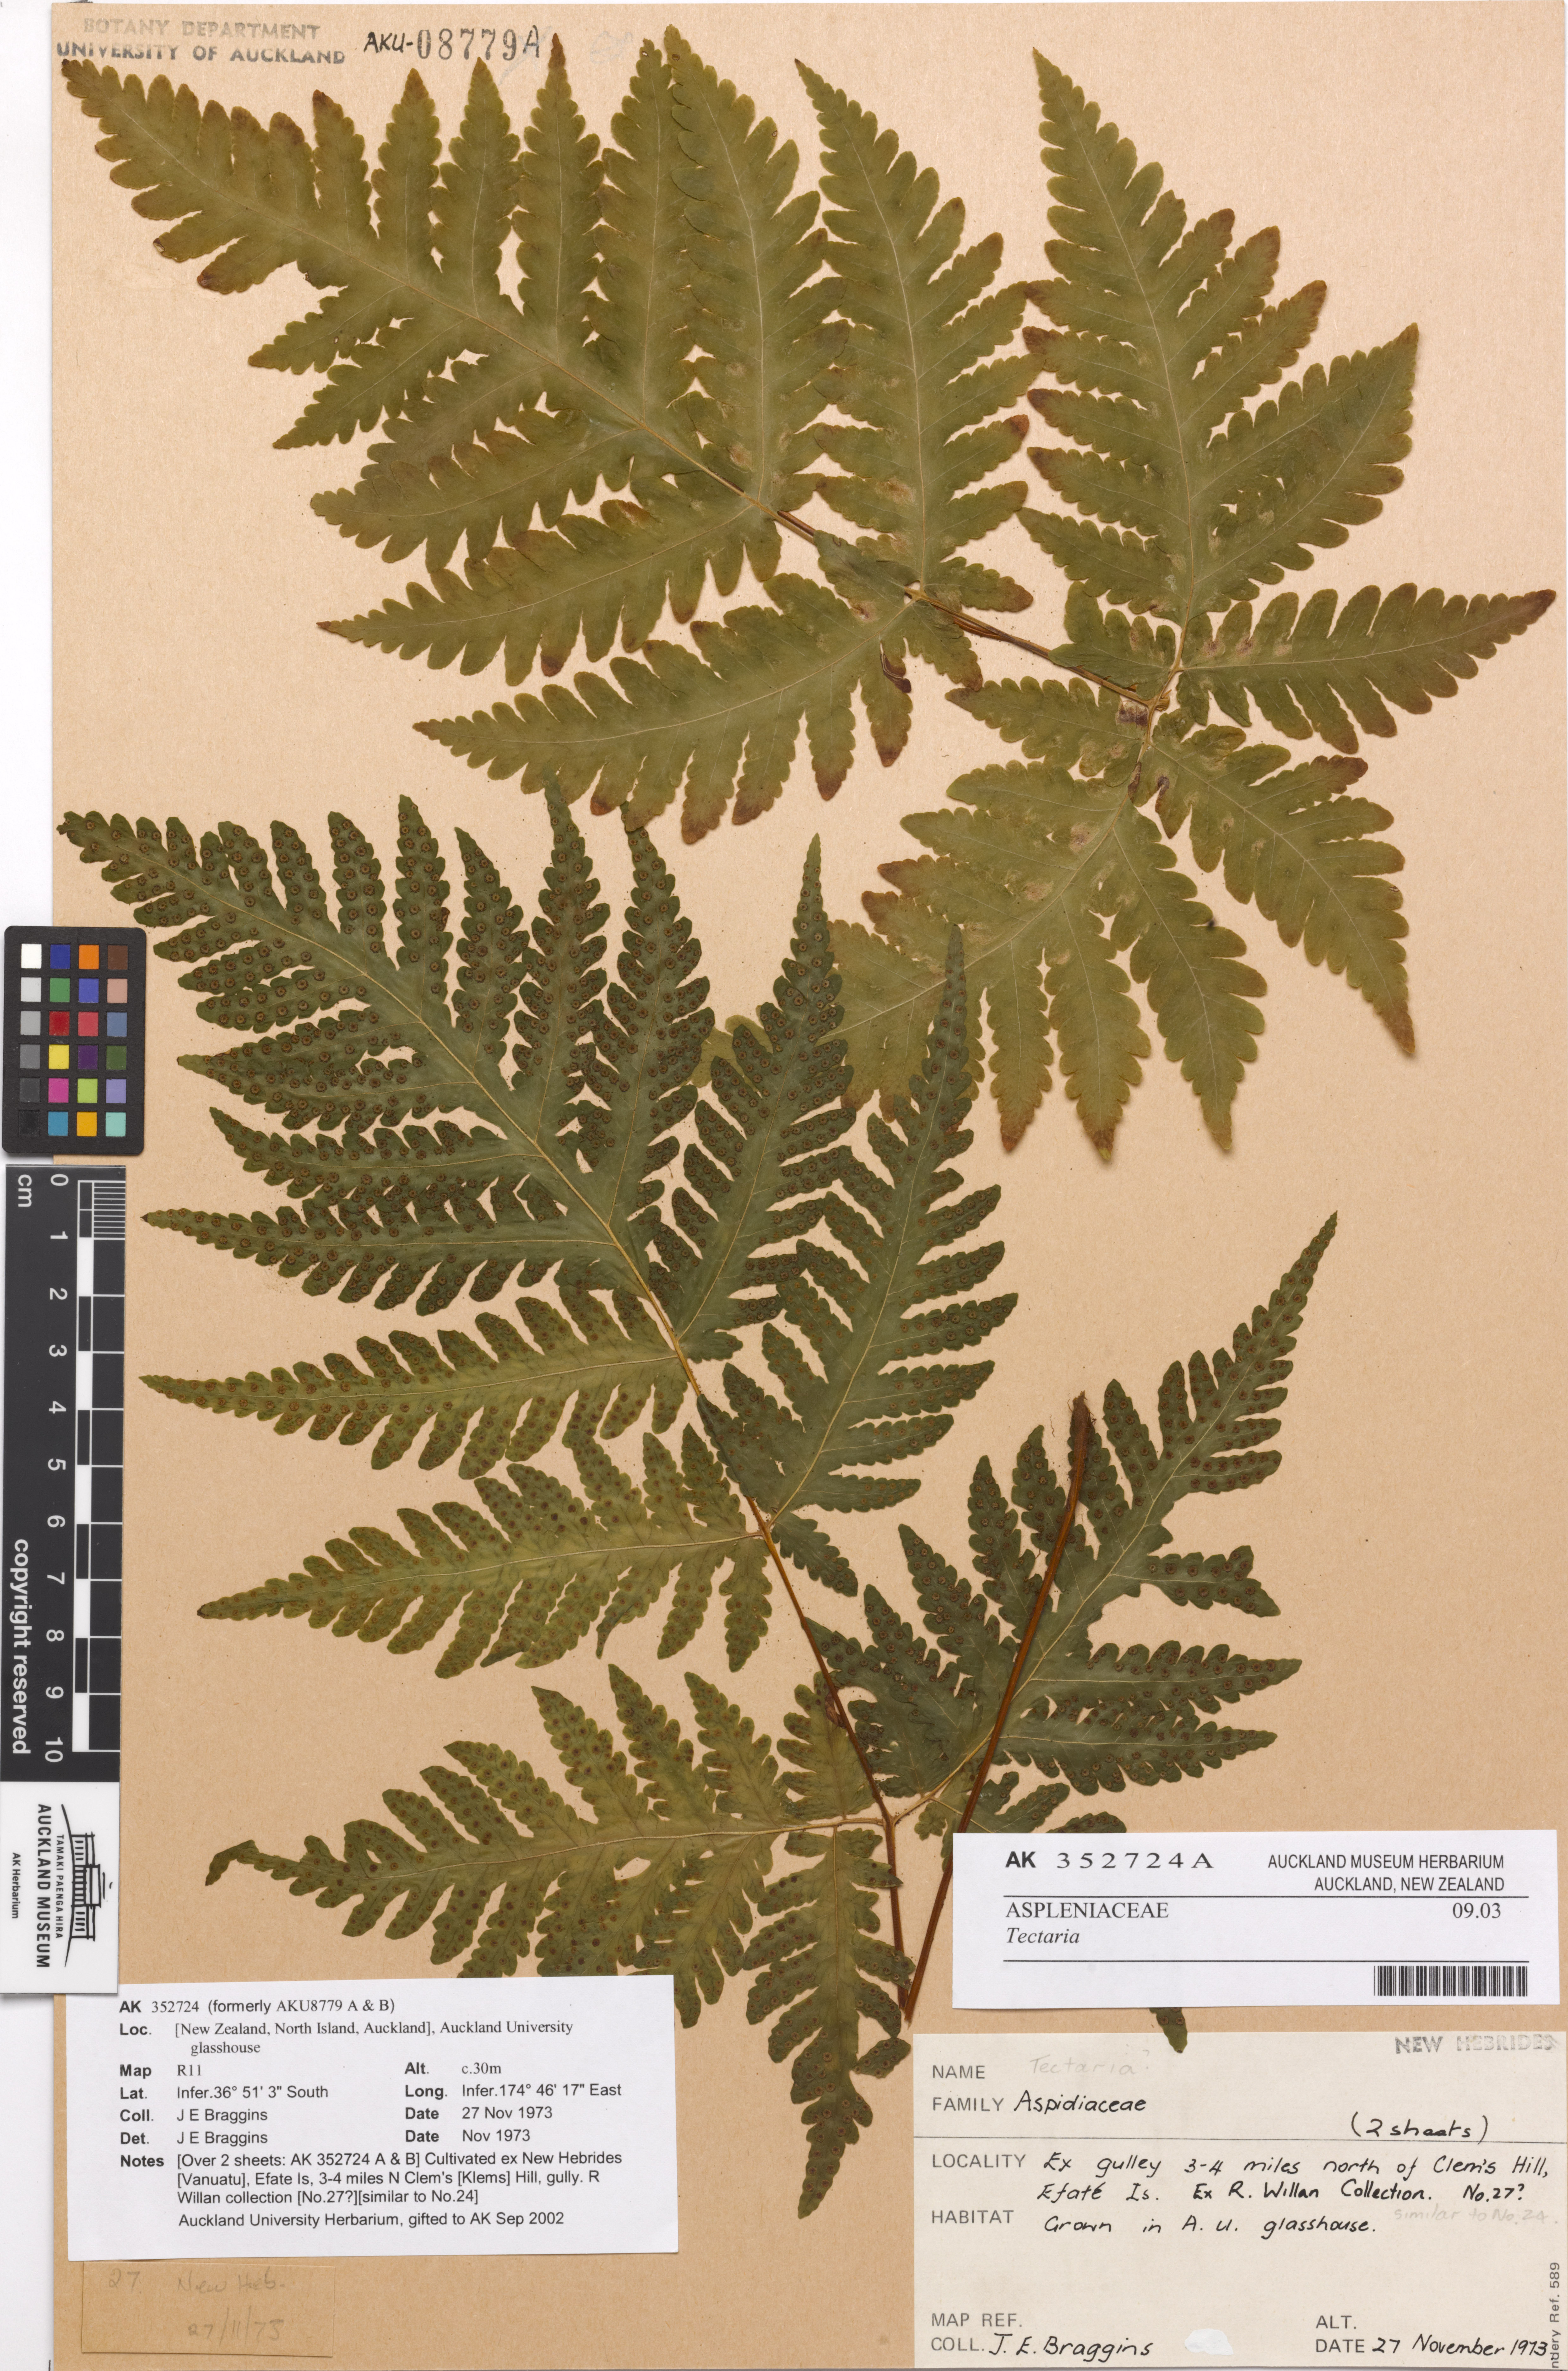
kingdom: Plantae
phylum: Tracheophyta
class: Polypodiopsida
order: Polypodiales
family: Tectariaceae
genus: Tectaria
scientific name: Tectaria
